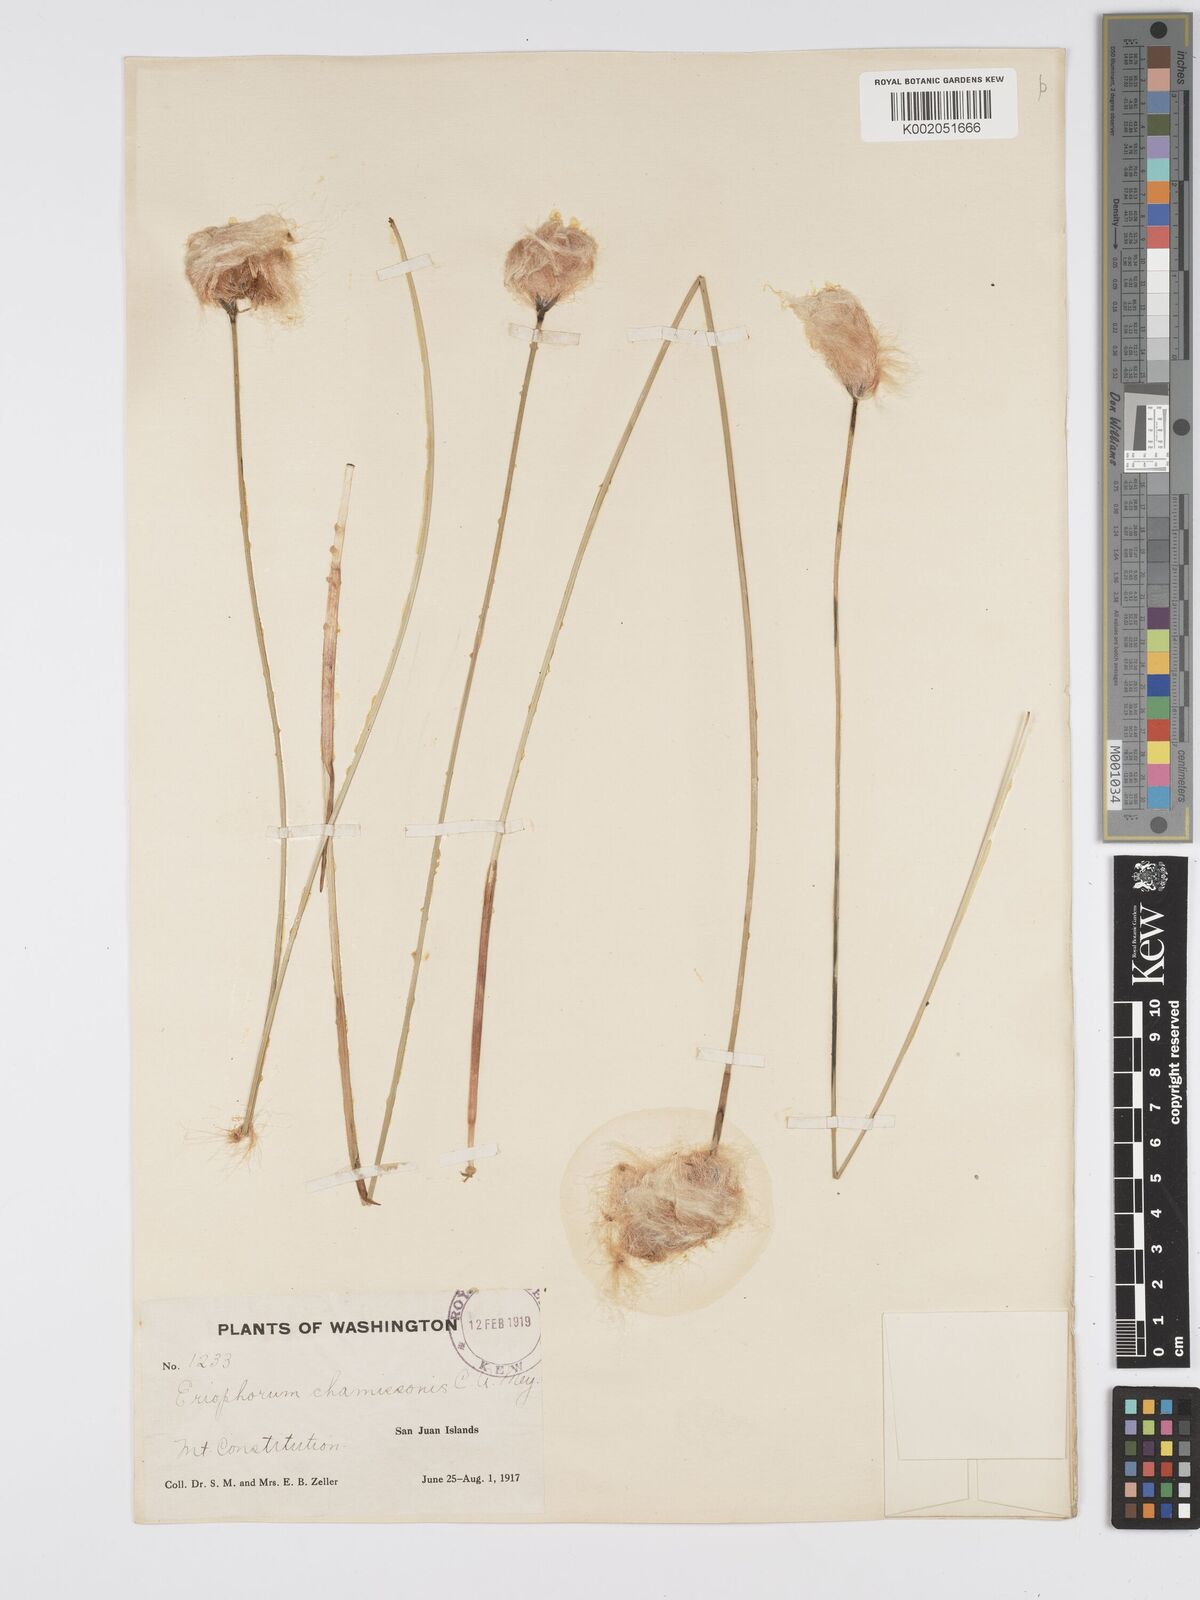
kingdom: Plantae
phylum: Tracheophyta
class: Liliopsida
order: Poales
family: Cyperaceae
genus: Eriophorum
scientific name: Eriophorum chamissonis
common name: Chamisso's cottongrass
